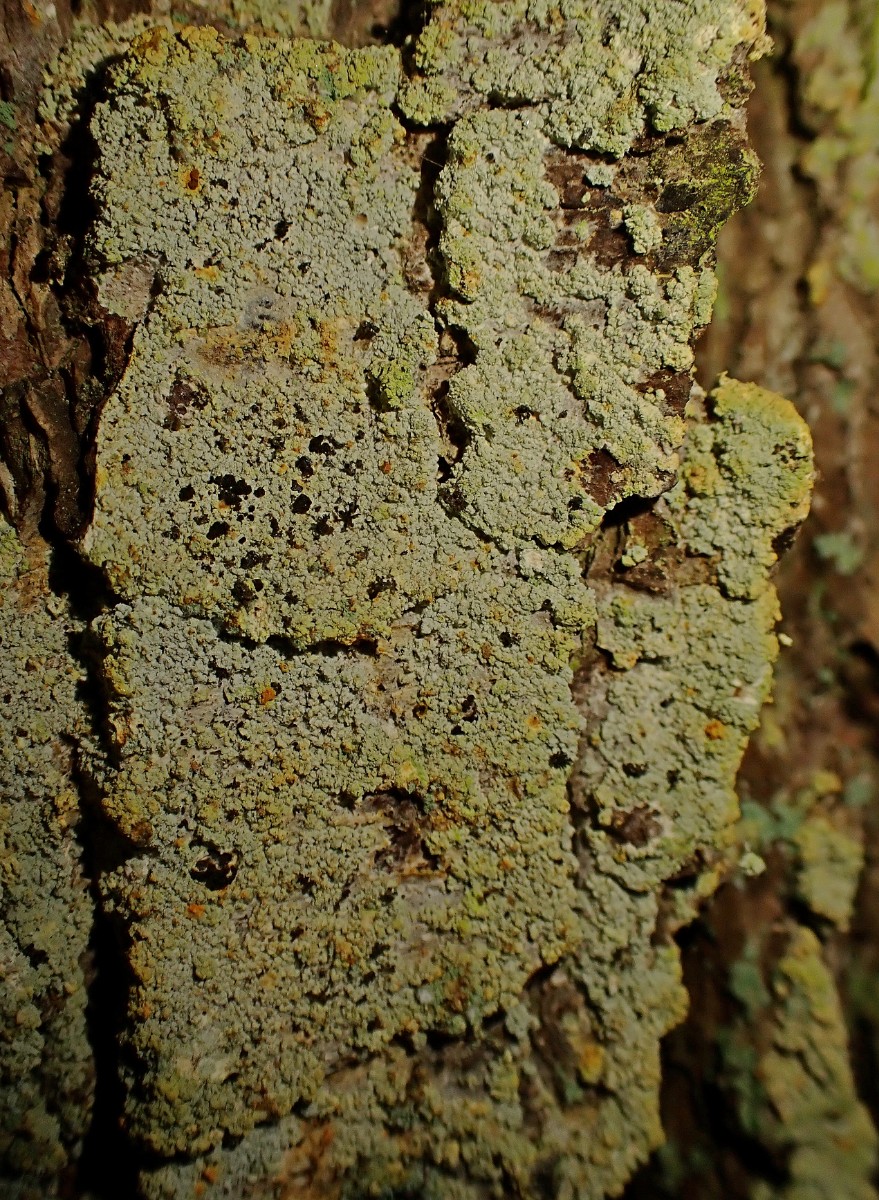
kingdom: Fungi
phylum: Ascomycota
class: Coniocybomycetes
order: Coniocybales
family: Coniocybaceae
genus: Chaenotheca
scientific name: Chaenotheca ferruginea
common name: rustbrun knappenålslav
